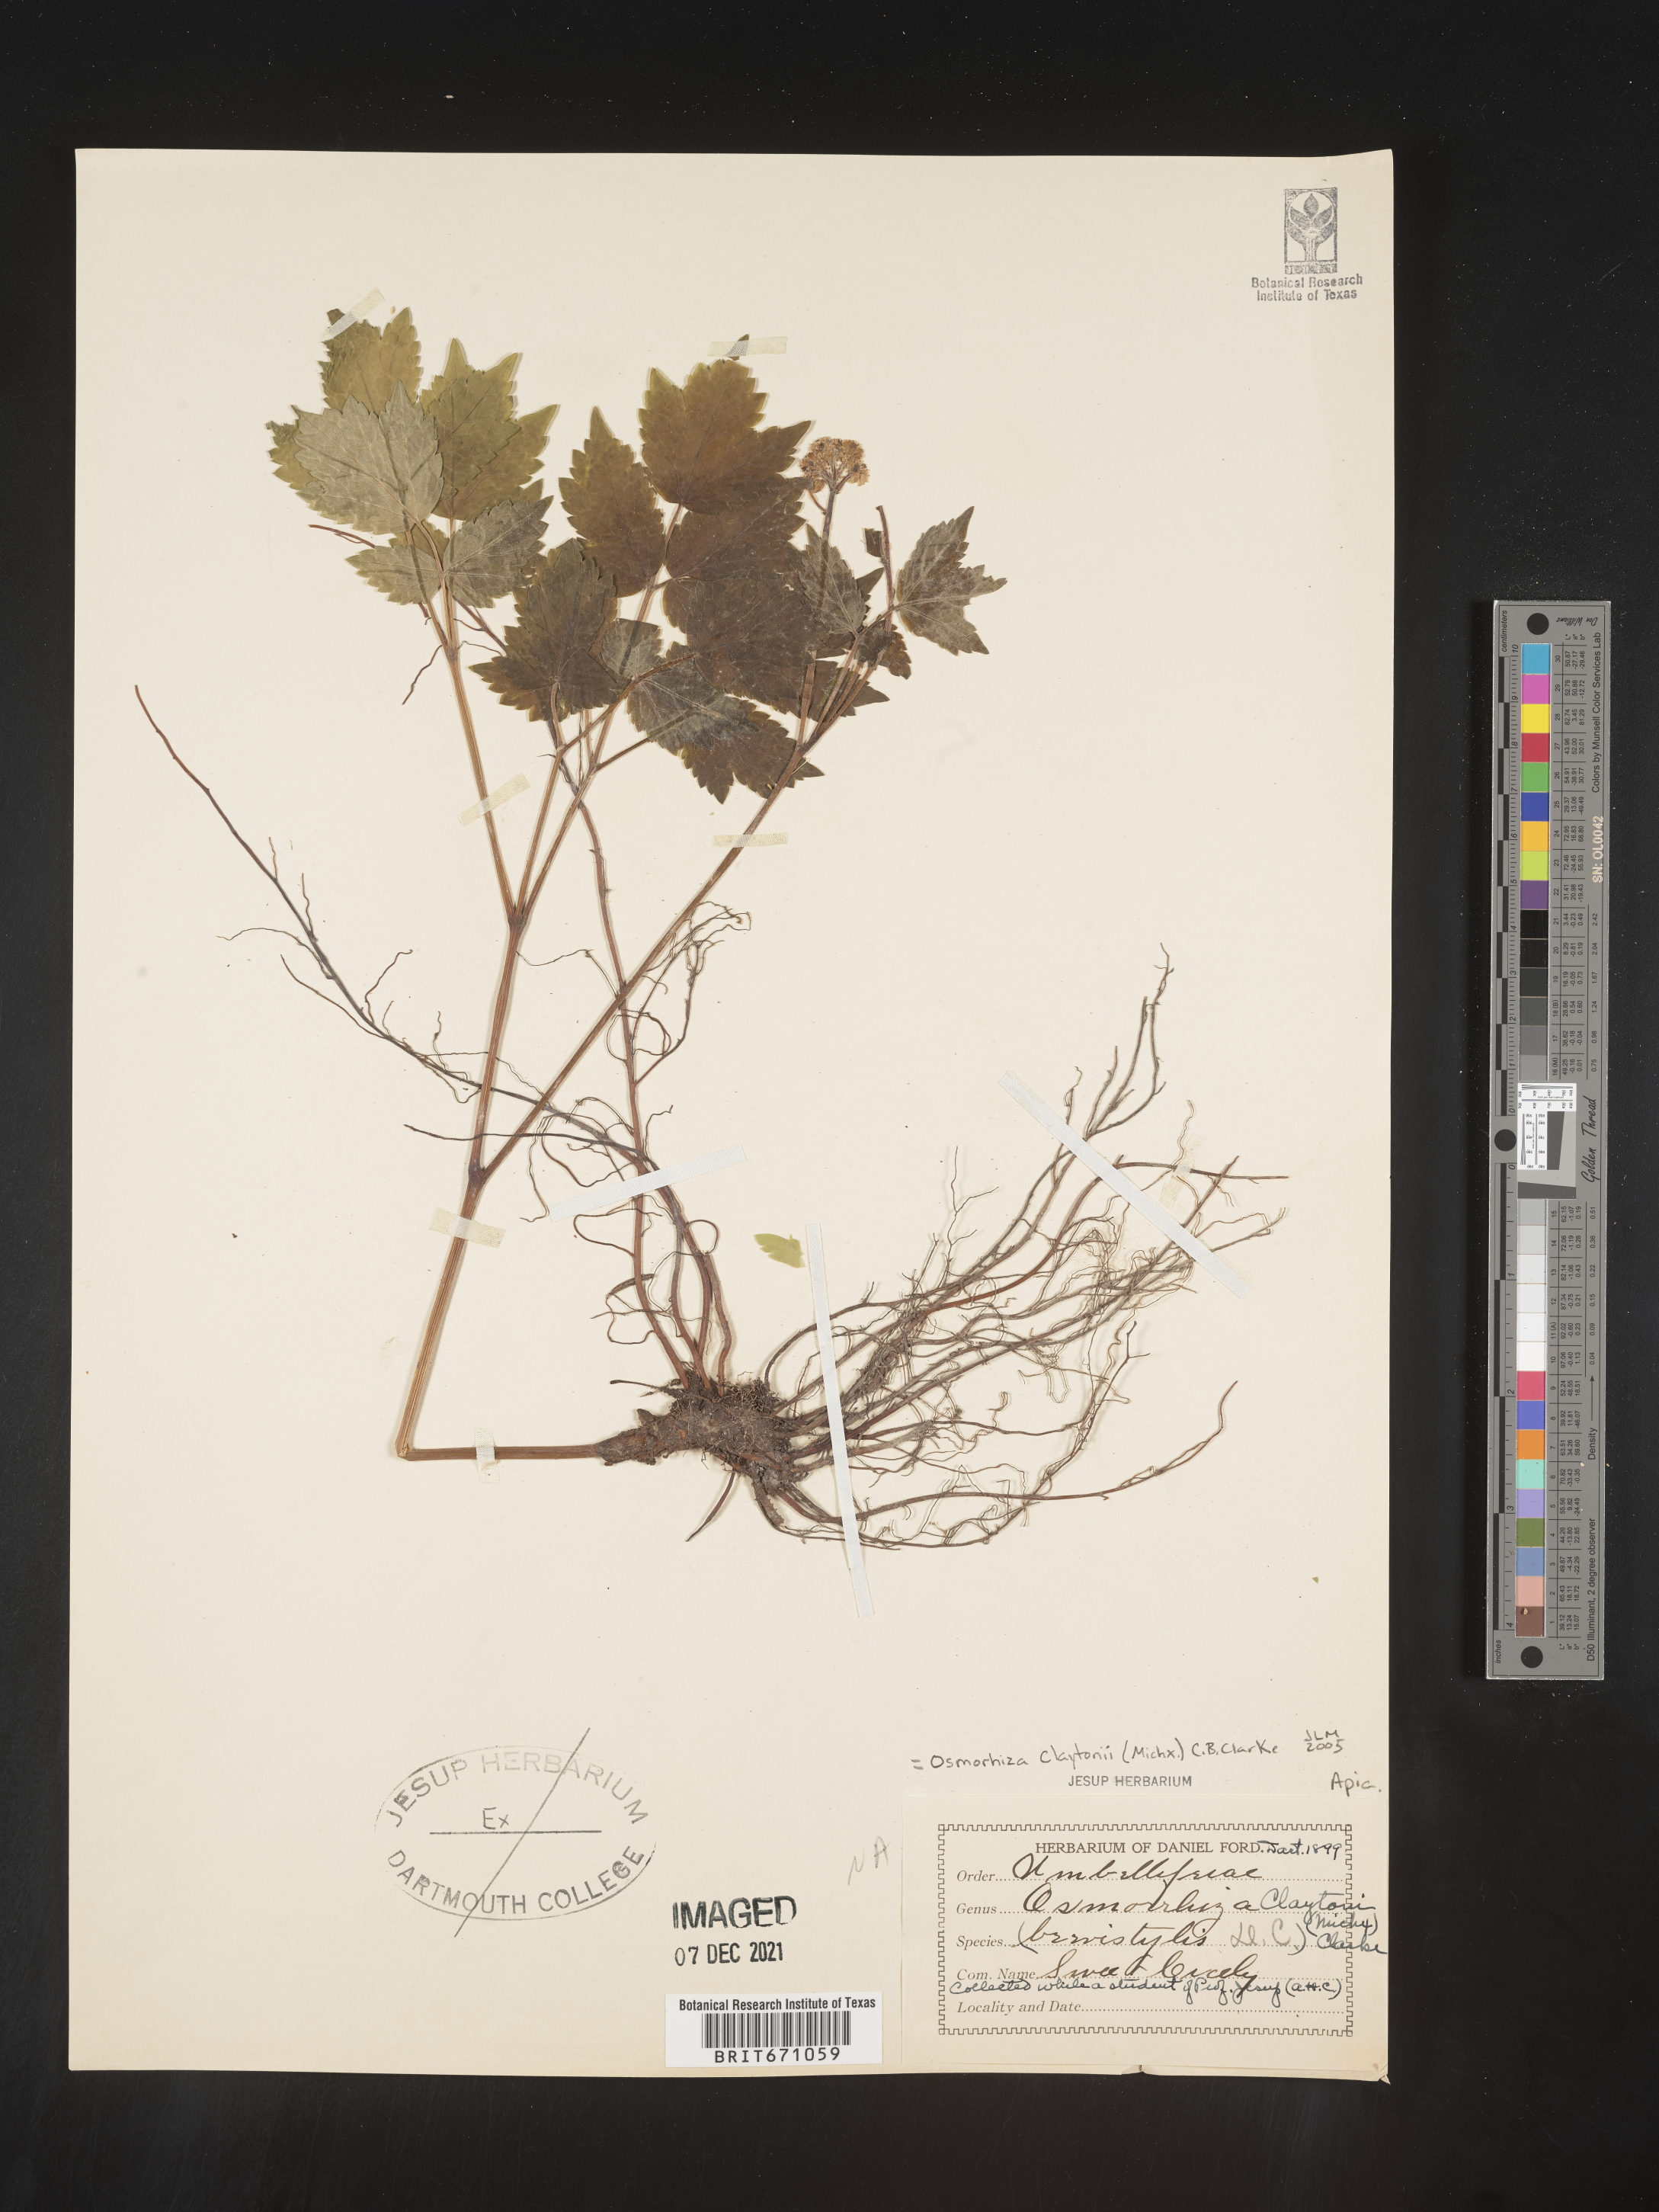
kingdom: Plantae
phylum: Tracheophyta
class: Magnoliopsida
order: Apiales
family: Apiaceae
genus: Osmorhiza
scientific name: Osmorhiza claytonii
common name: Hairy sweet cicely
